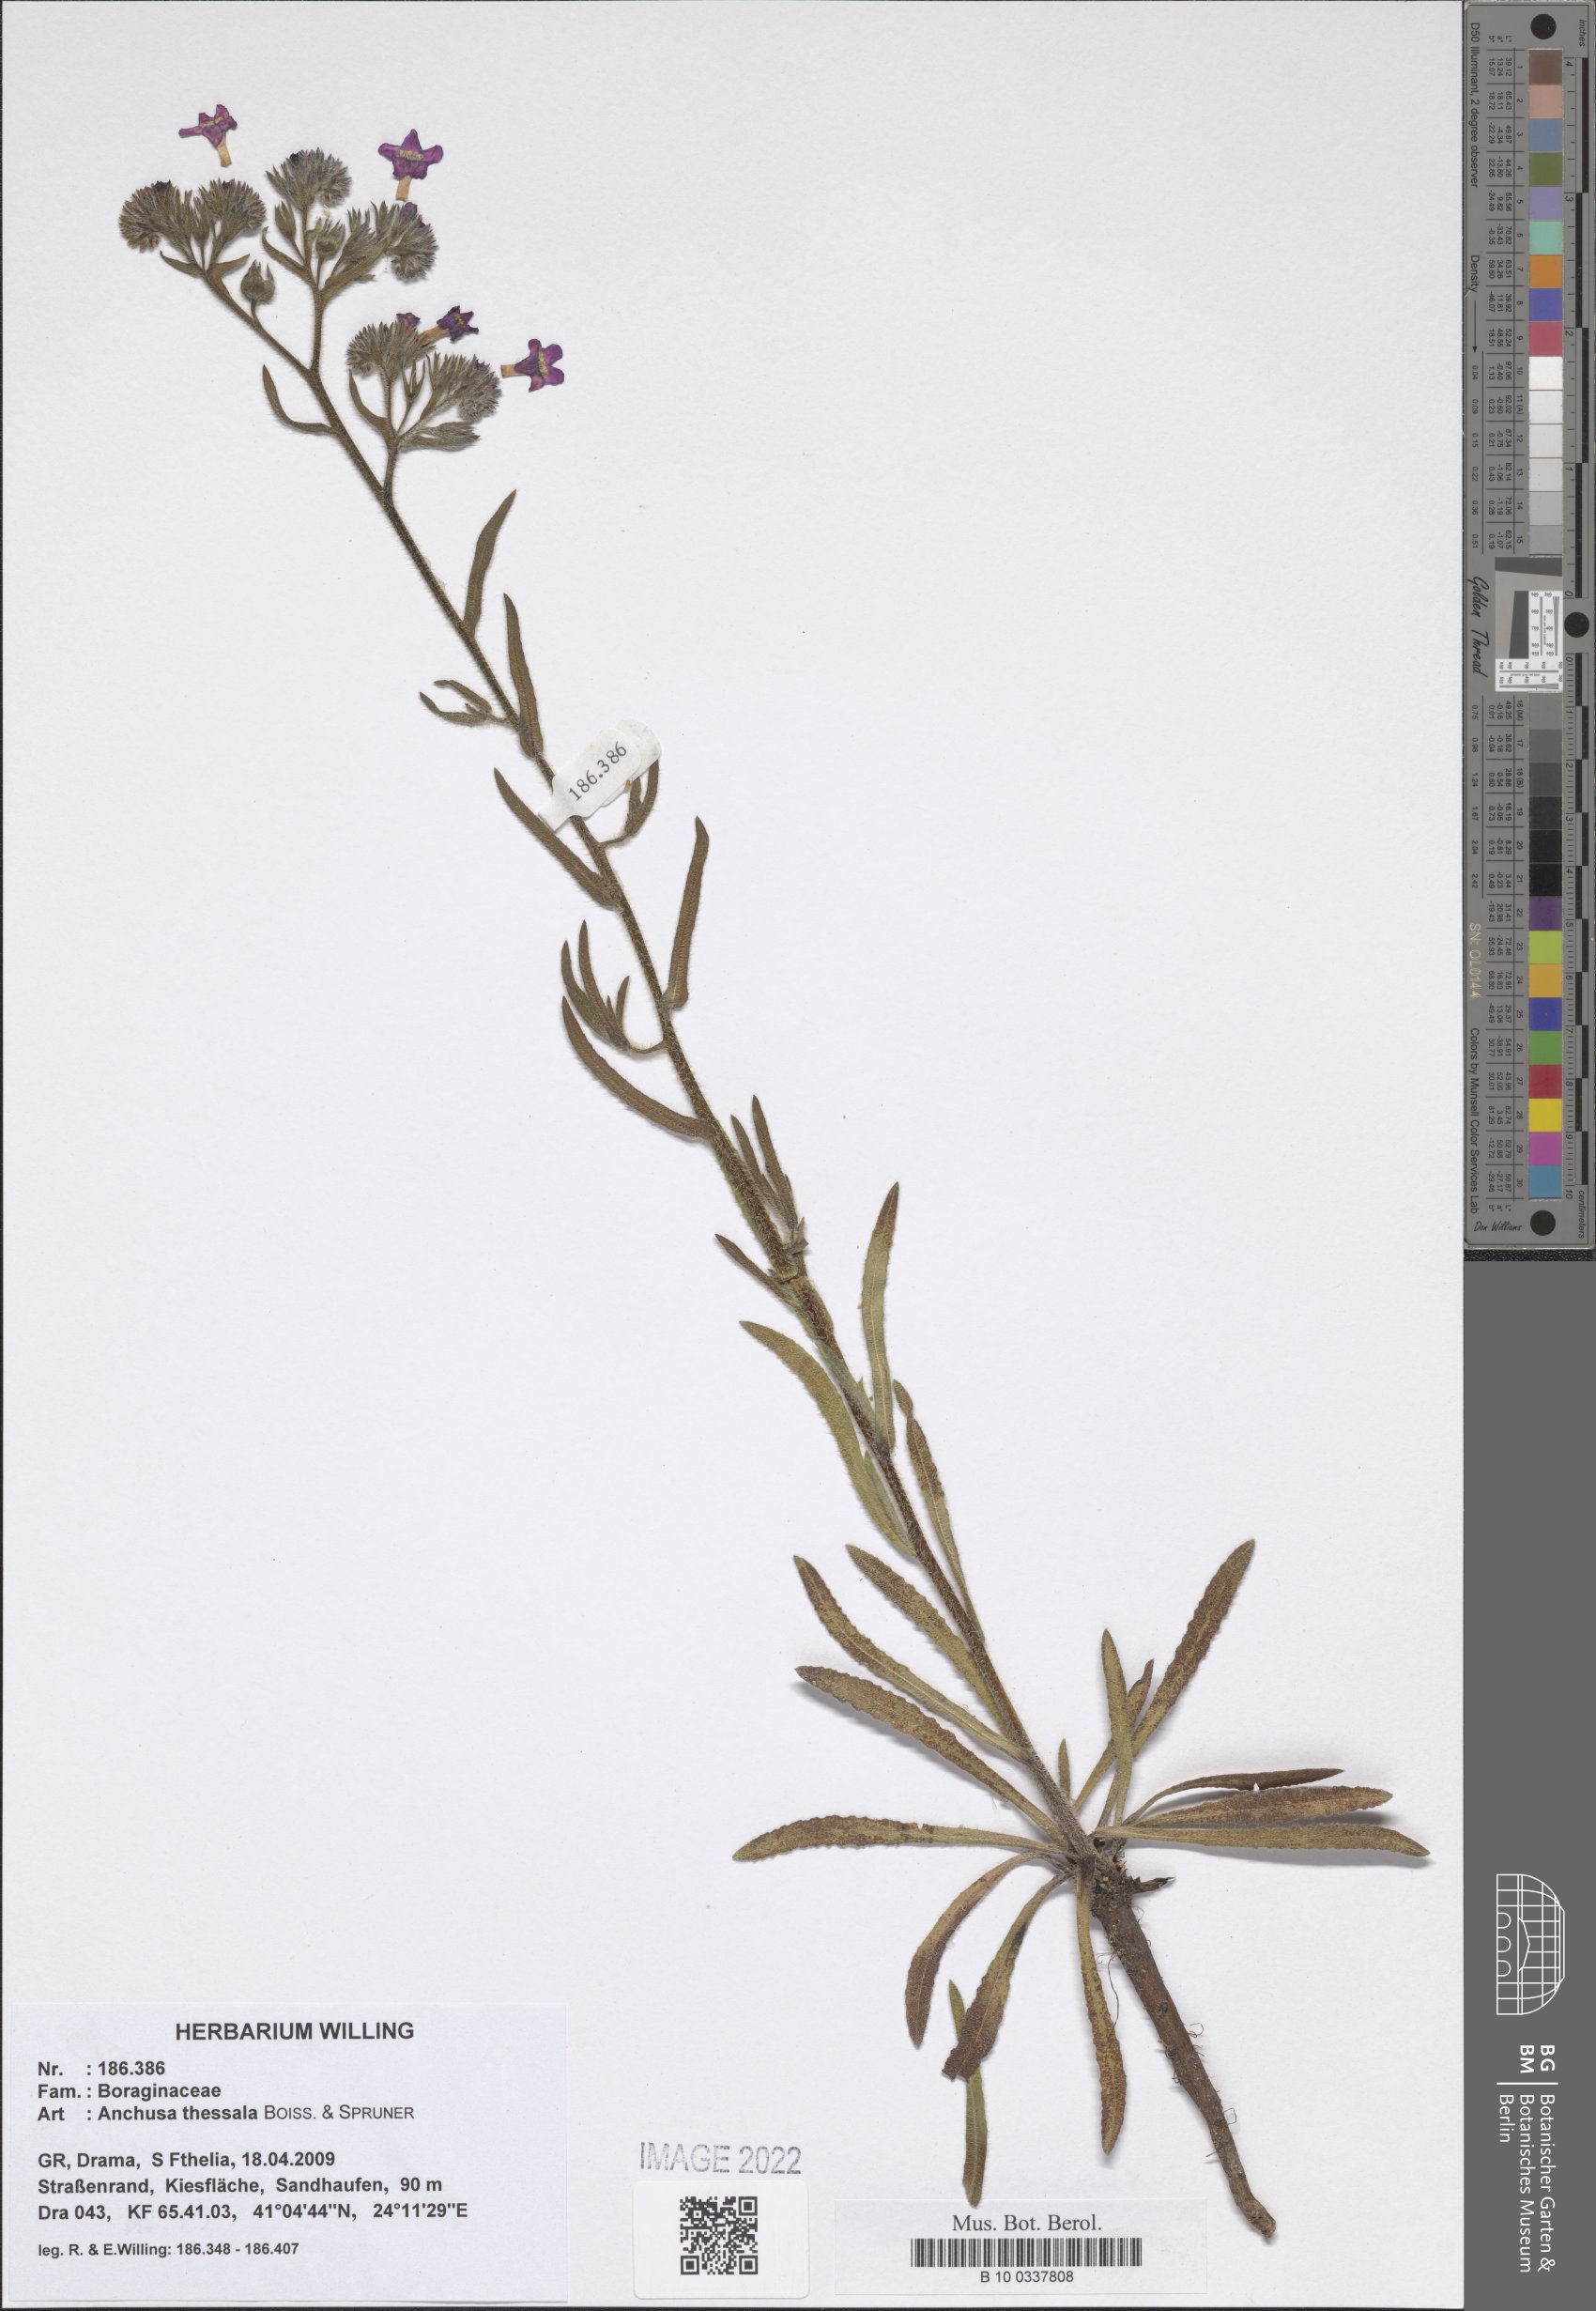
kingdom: Plantae
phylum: Tracheophyta
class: Magnoliopsida
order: Boraginales
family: Boraginaceae
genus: Anchusa
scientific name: Anchusa thessala
